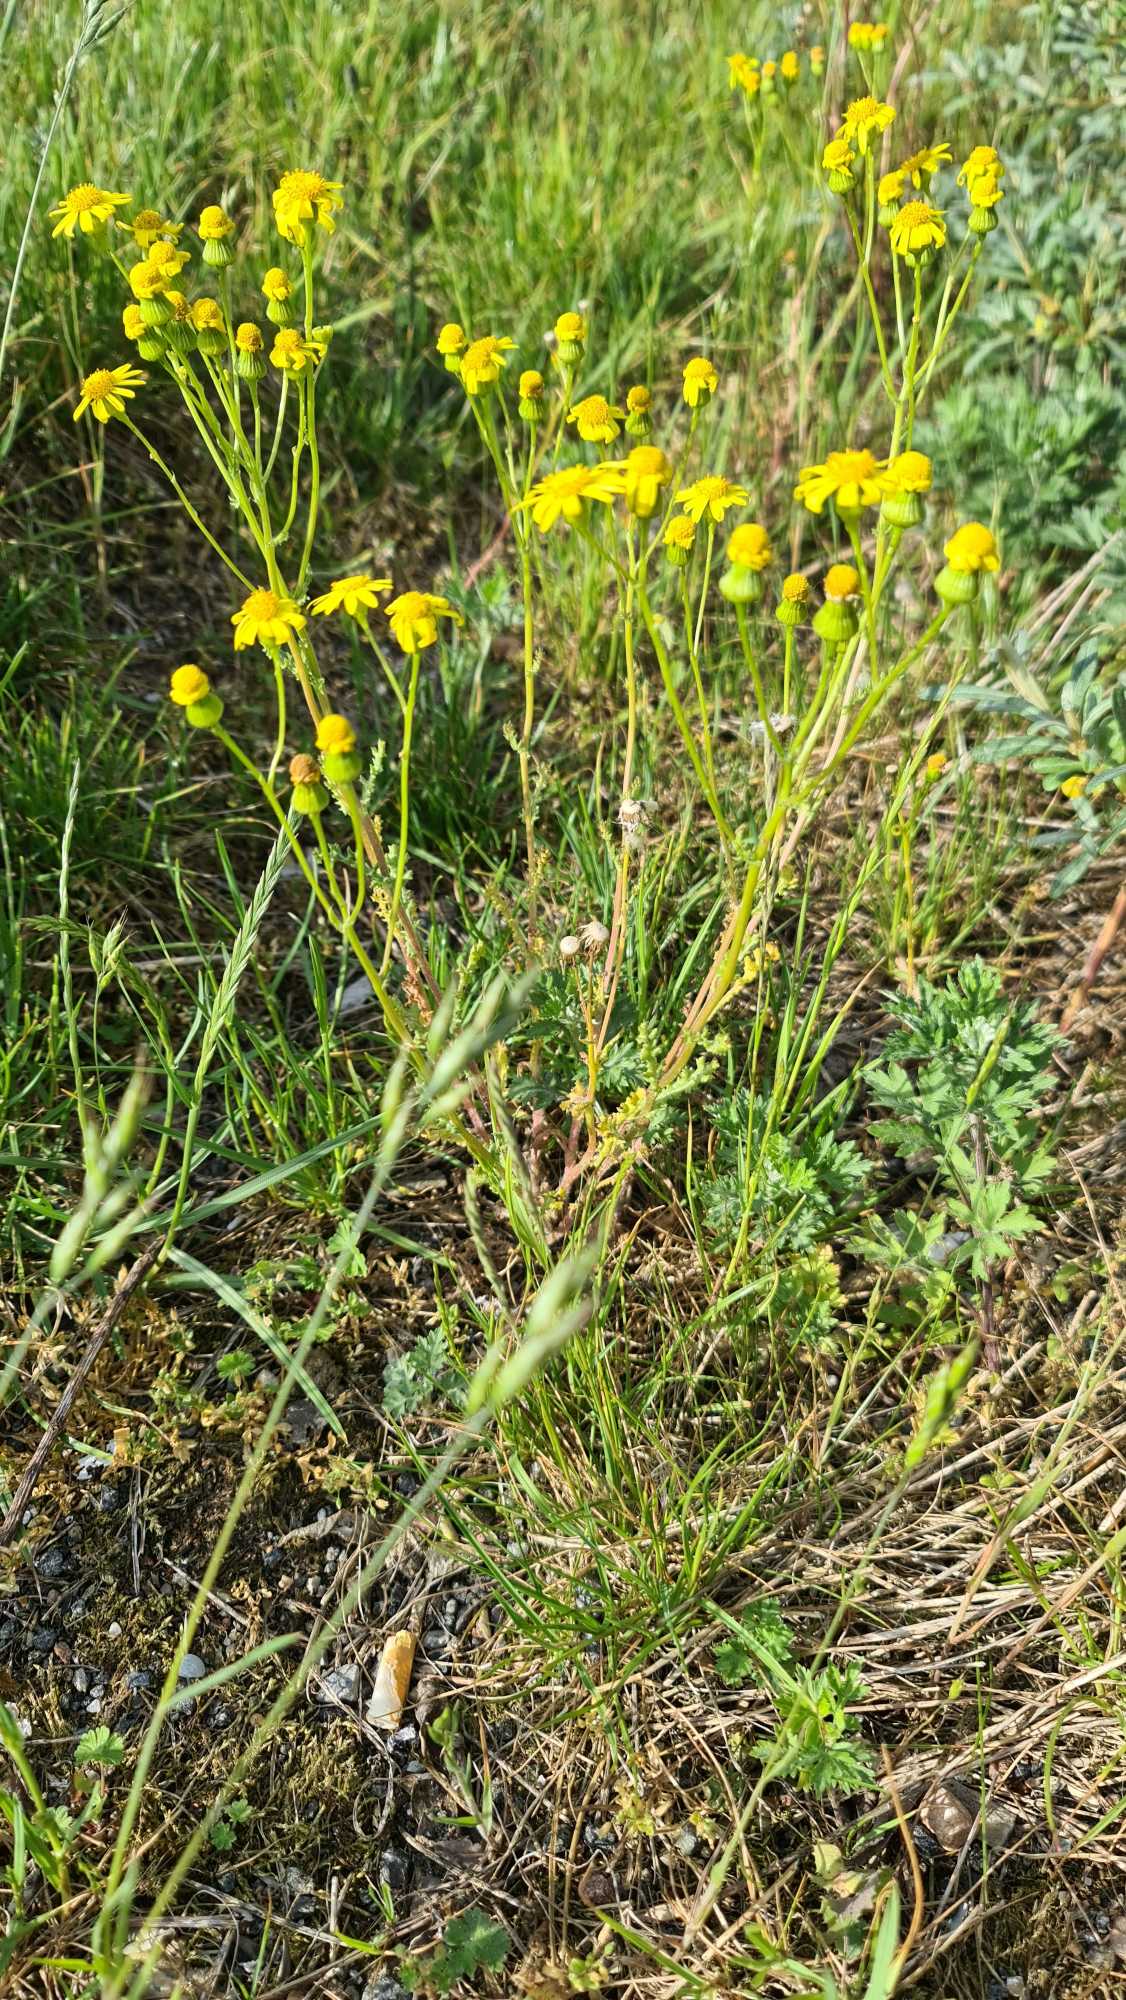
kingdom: Plantae
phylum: Tracheophyta
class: Magnoliopsida
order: Asterales
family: Asteraceae
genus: Senecio
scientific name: Senecio leucanthemifolius
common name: Vår-brandbæger
